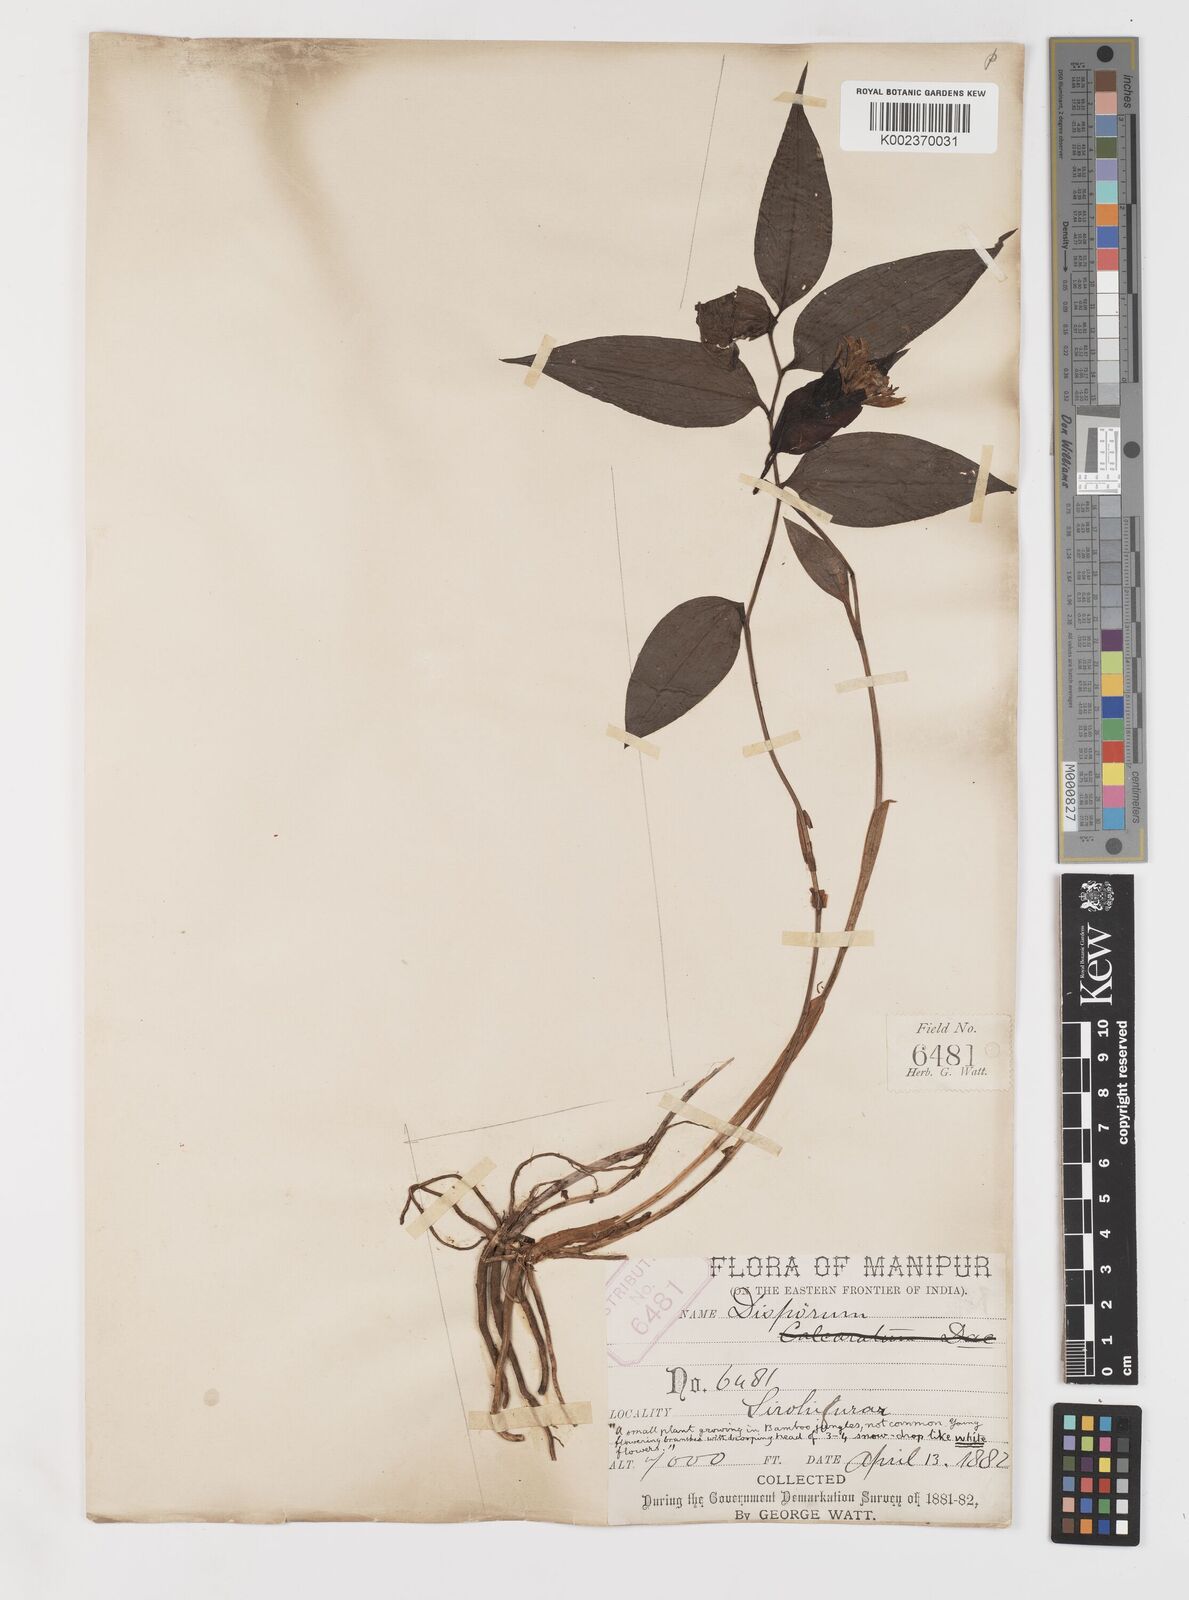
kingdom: Plantae
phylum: Tracheophyta
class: Liliopsida
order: Liliales
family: Colchicaceae
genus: Disporum
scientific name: Disporum cantoniense
